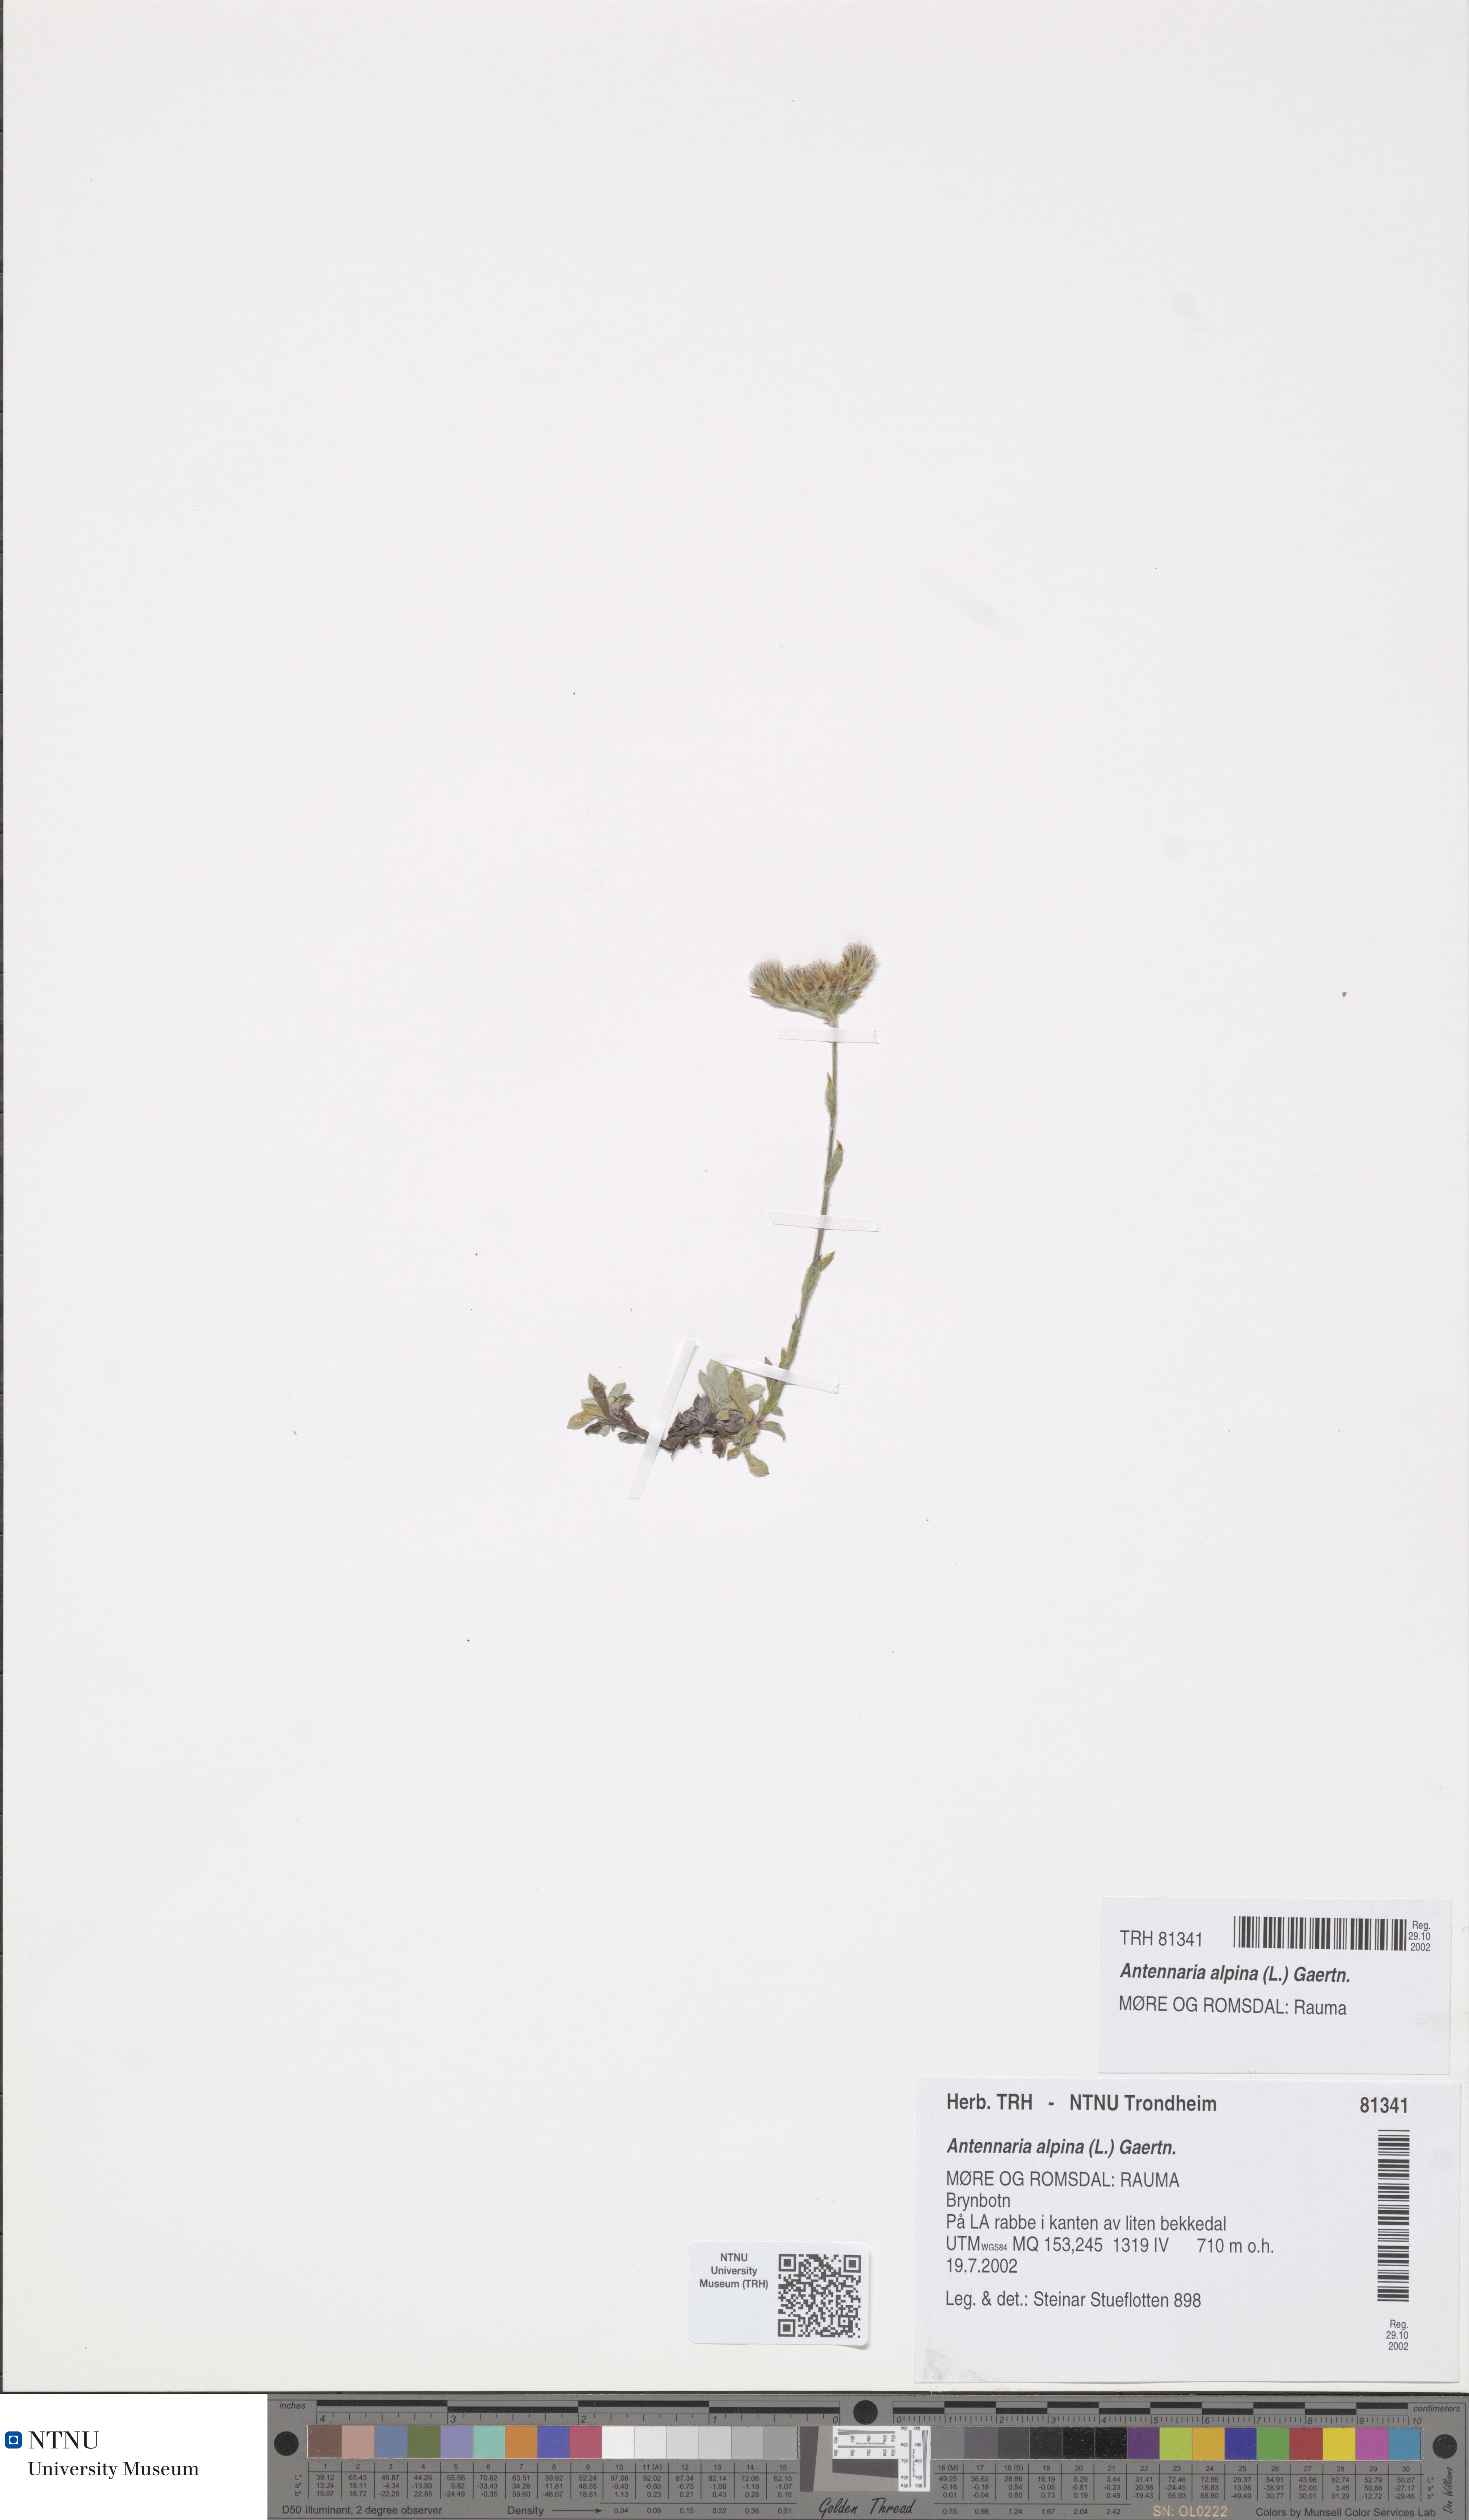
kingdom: Plantae
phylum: Tracheophyta
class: Magnoliopsida
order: Asterales
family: Asteraceae
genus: Antennaria
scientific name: Antennaria alpina
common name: Alpine pussytoes
